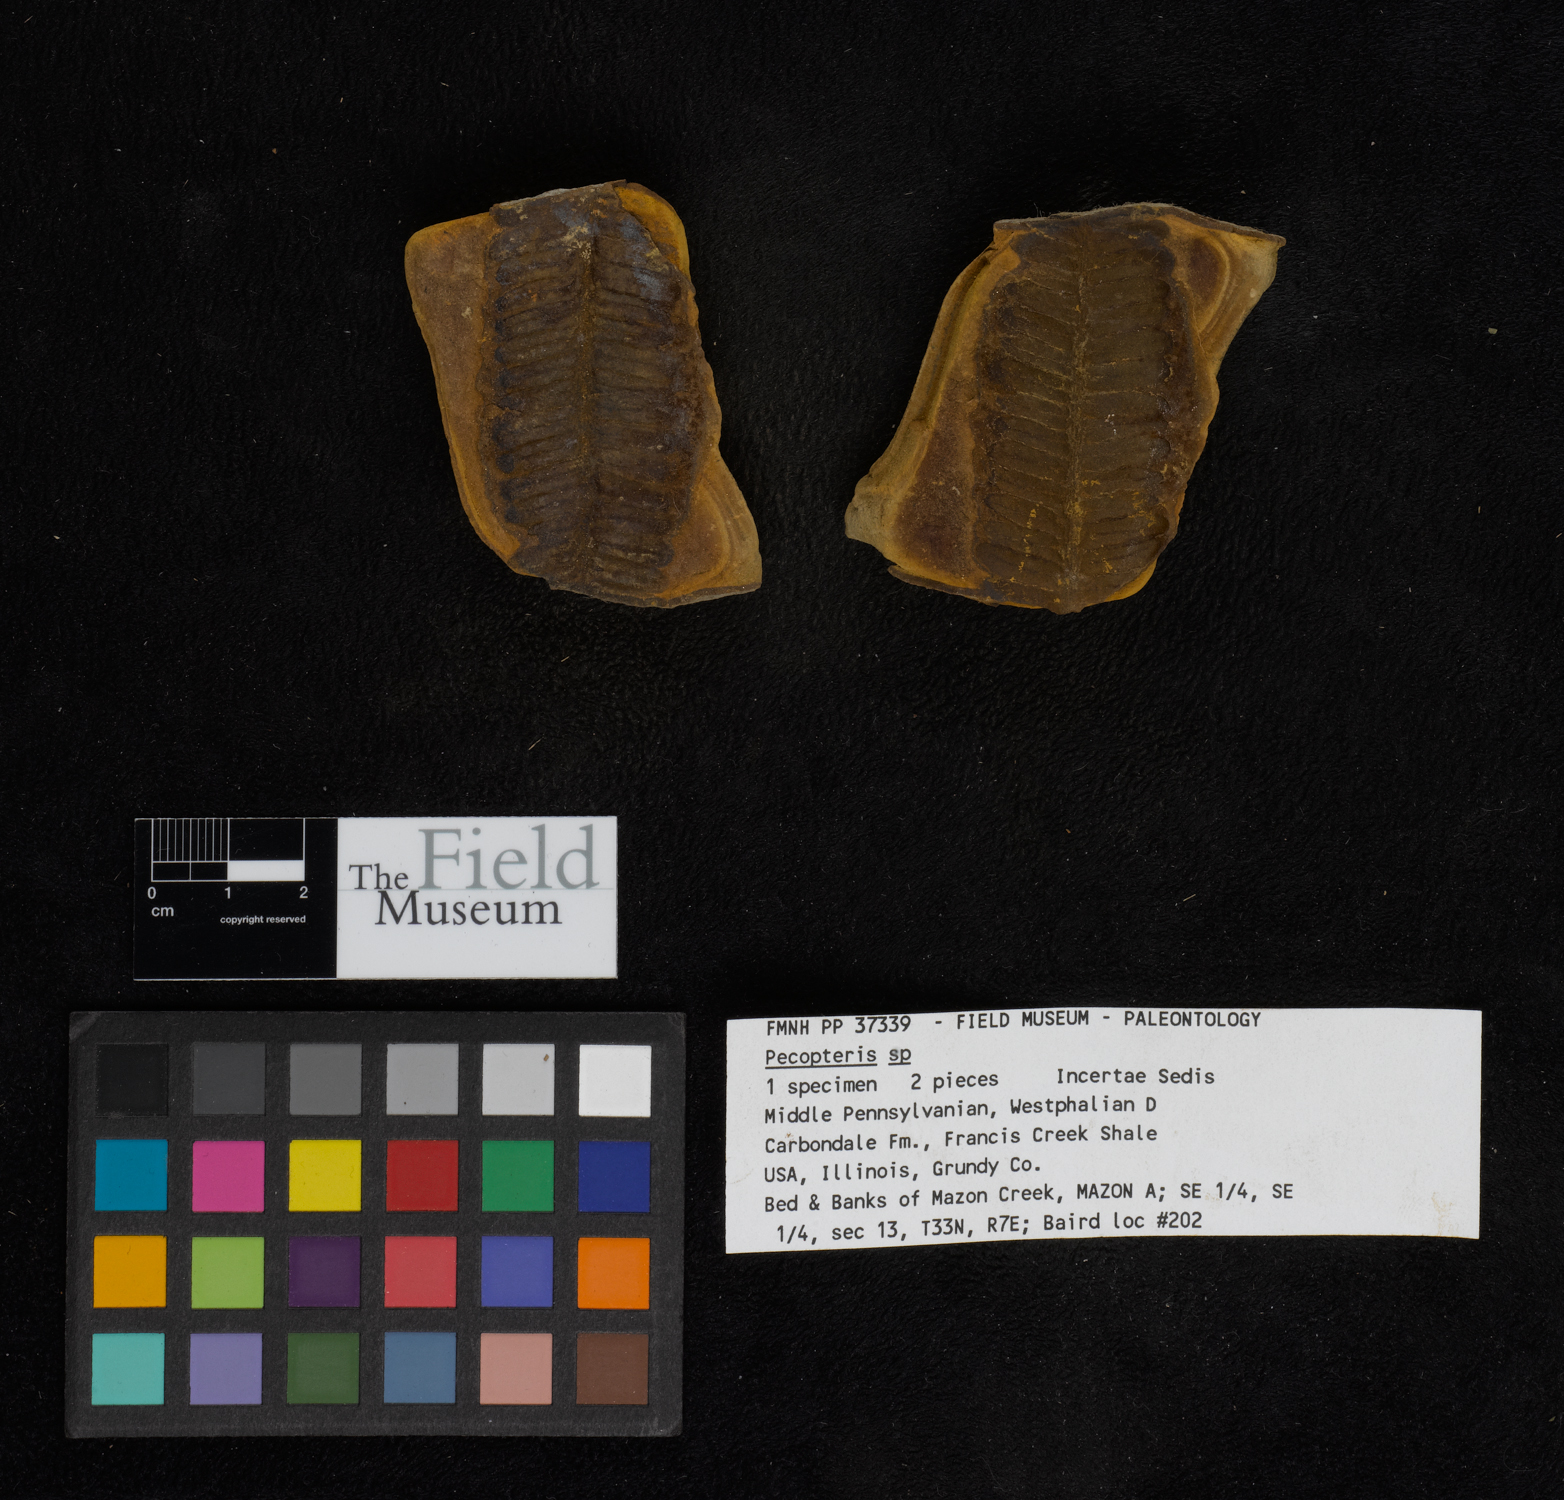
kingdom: Plantae
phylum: Tracheophyta
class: Polypodiopsida
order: Marattiales
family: Asterothecaceae
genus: Pecopteris
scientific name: Pecopteris
